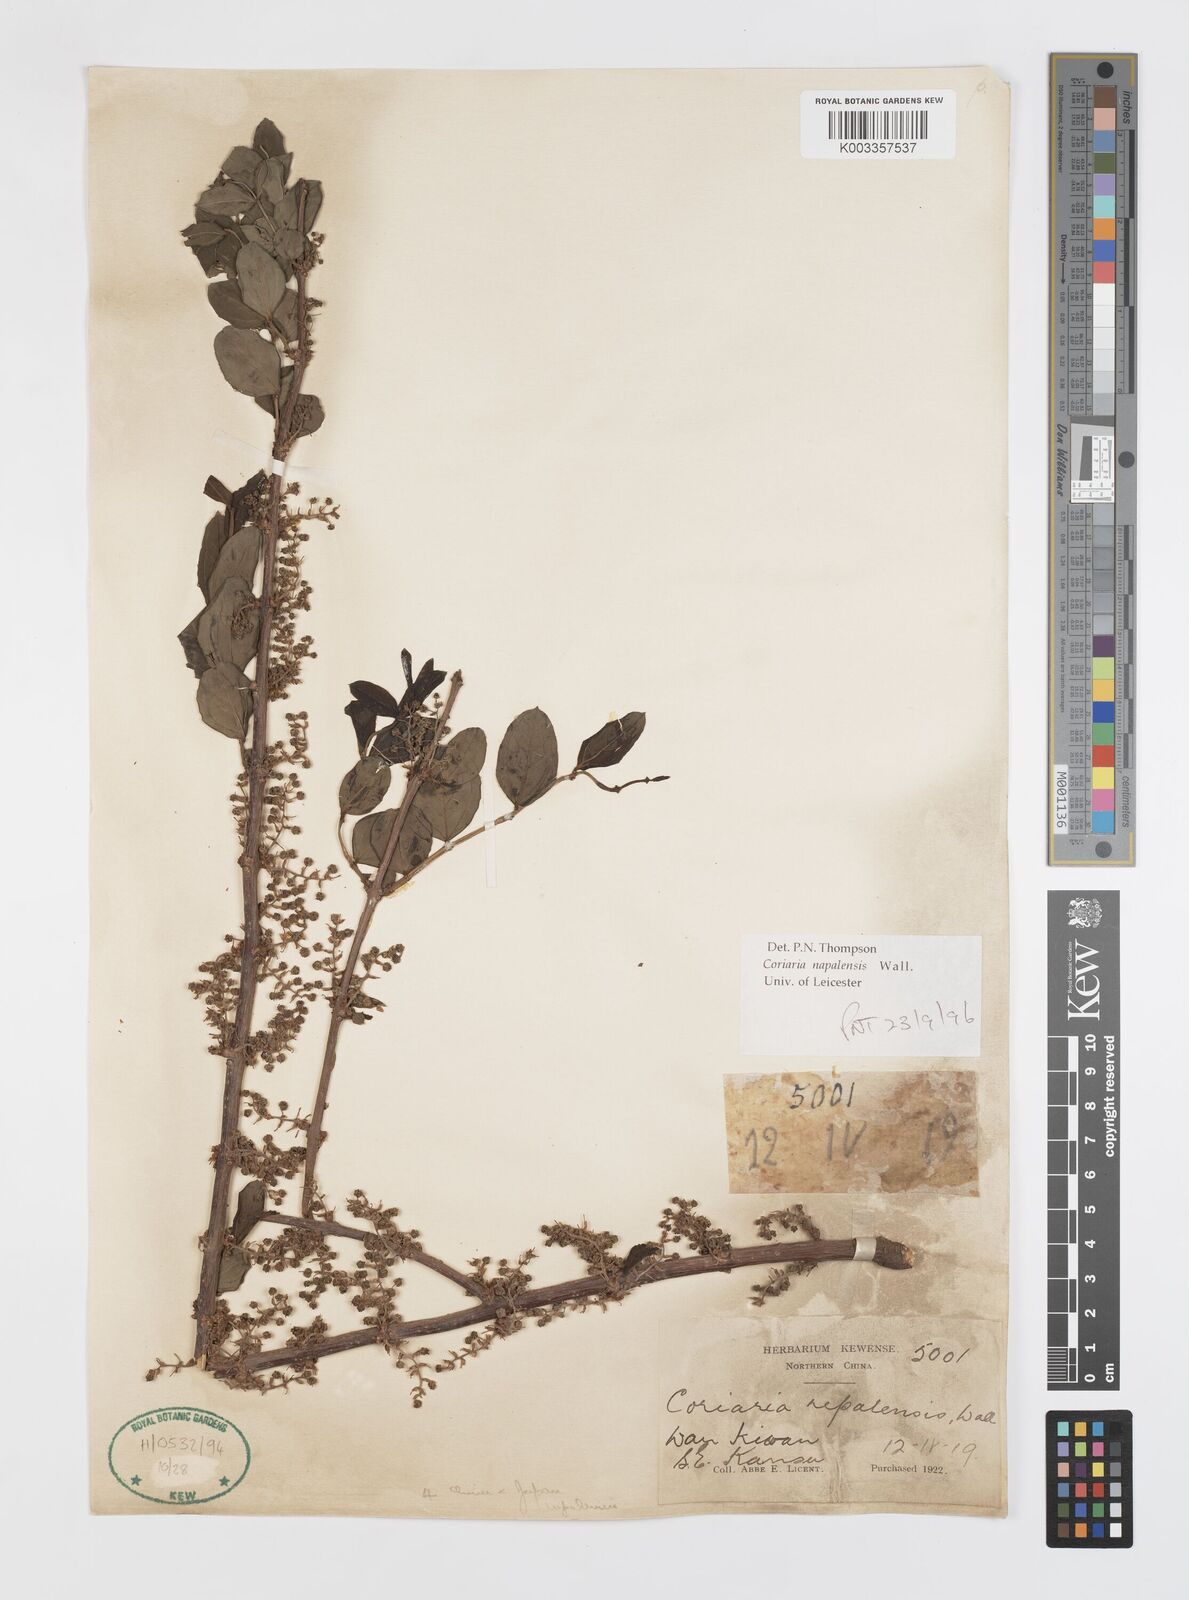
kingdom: Plantae
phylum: Tracheophyta
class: Magnoliopsida
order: Cucurbitales
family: Coriariaceae
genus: Coriaria
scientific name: Coriaria napalensis
